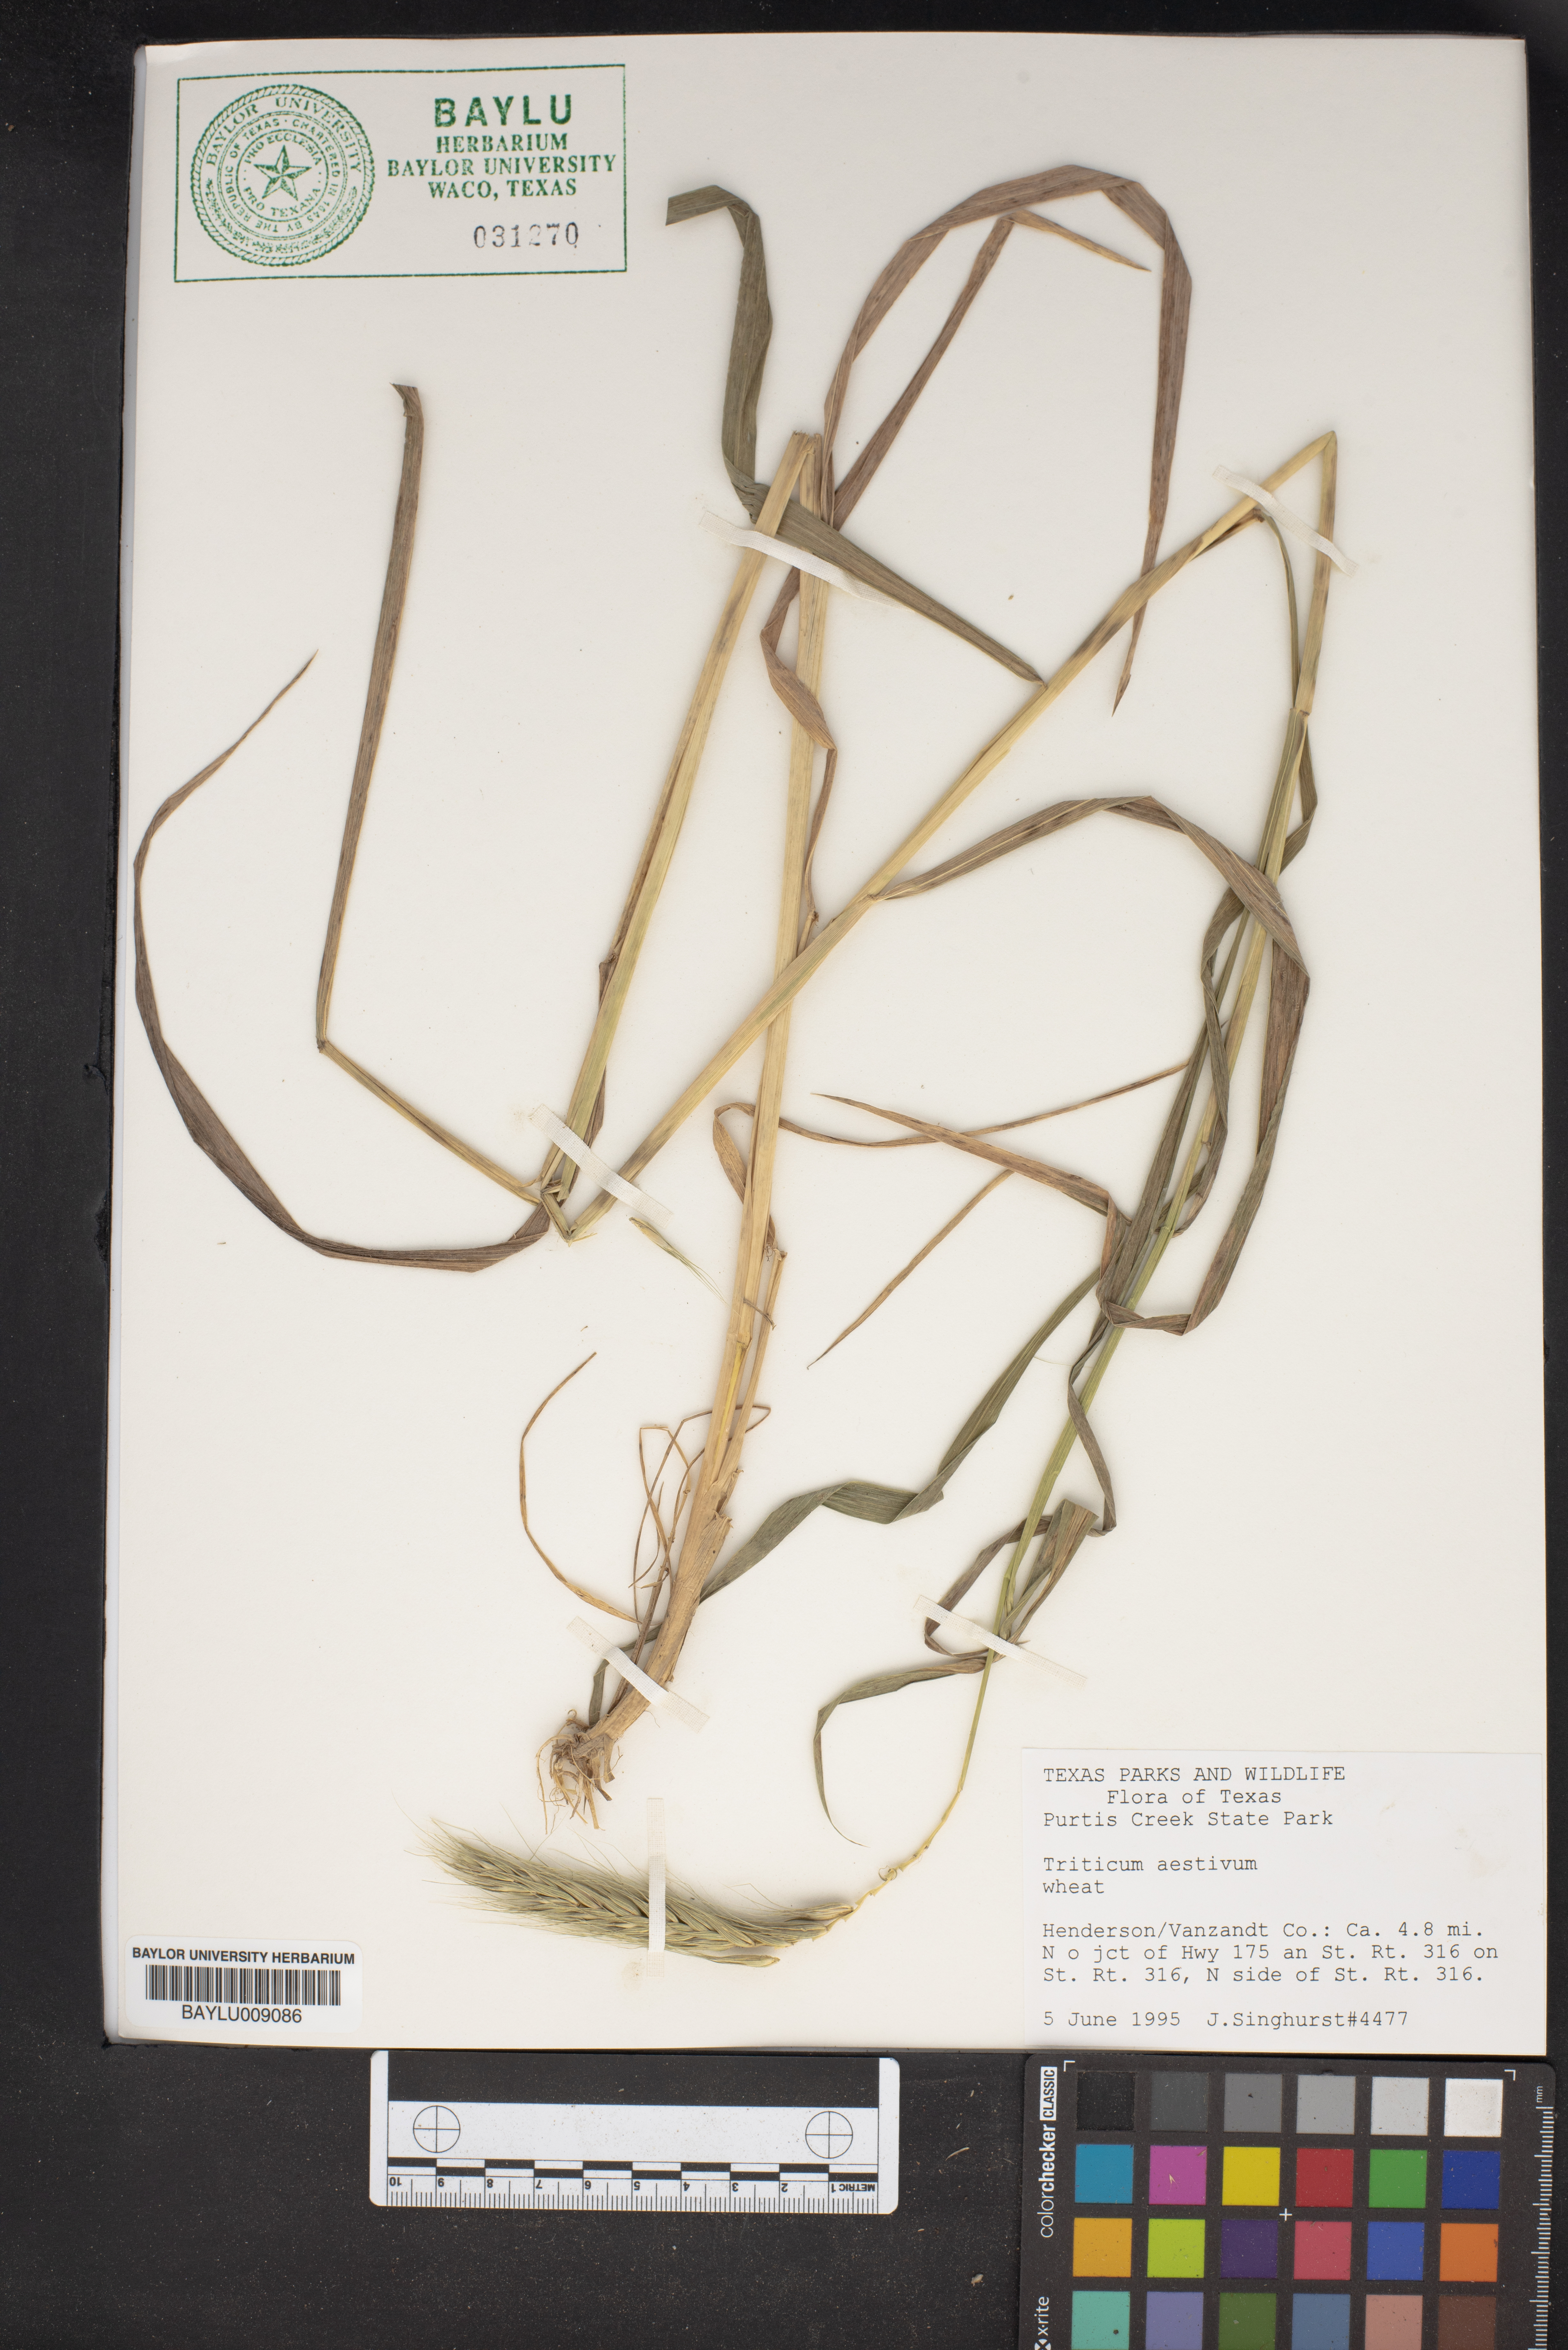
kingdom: Plantae
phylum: Tracheophyta
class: Liliopsida
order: Poales
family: Poaceae
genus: Triticum
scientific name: Triticum aestivum
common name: Common wheat
